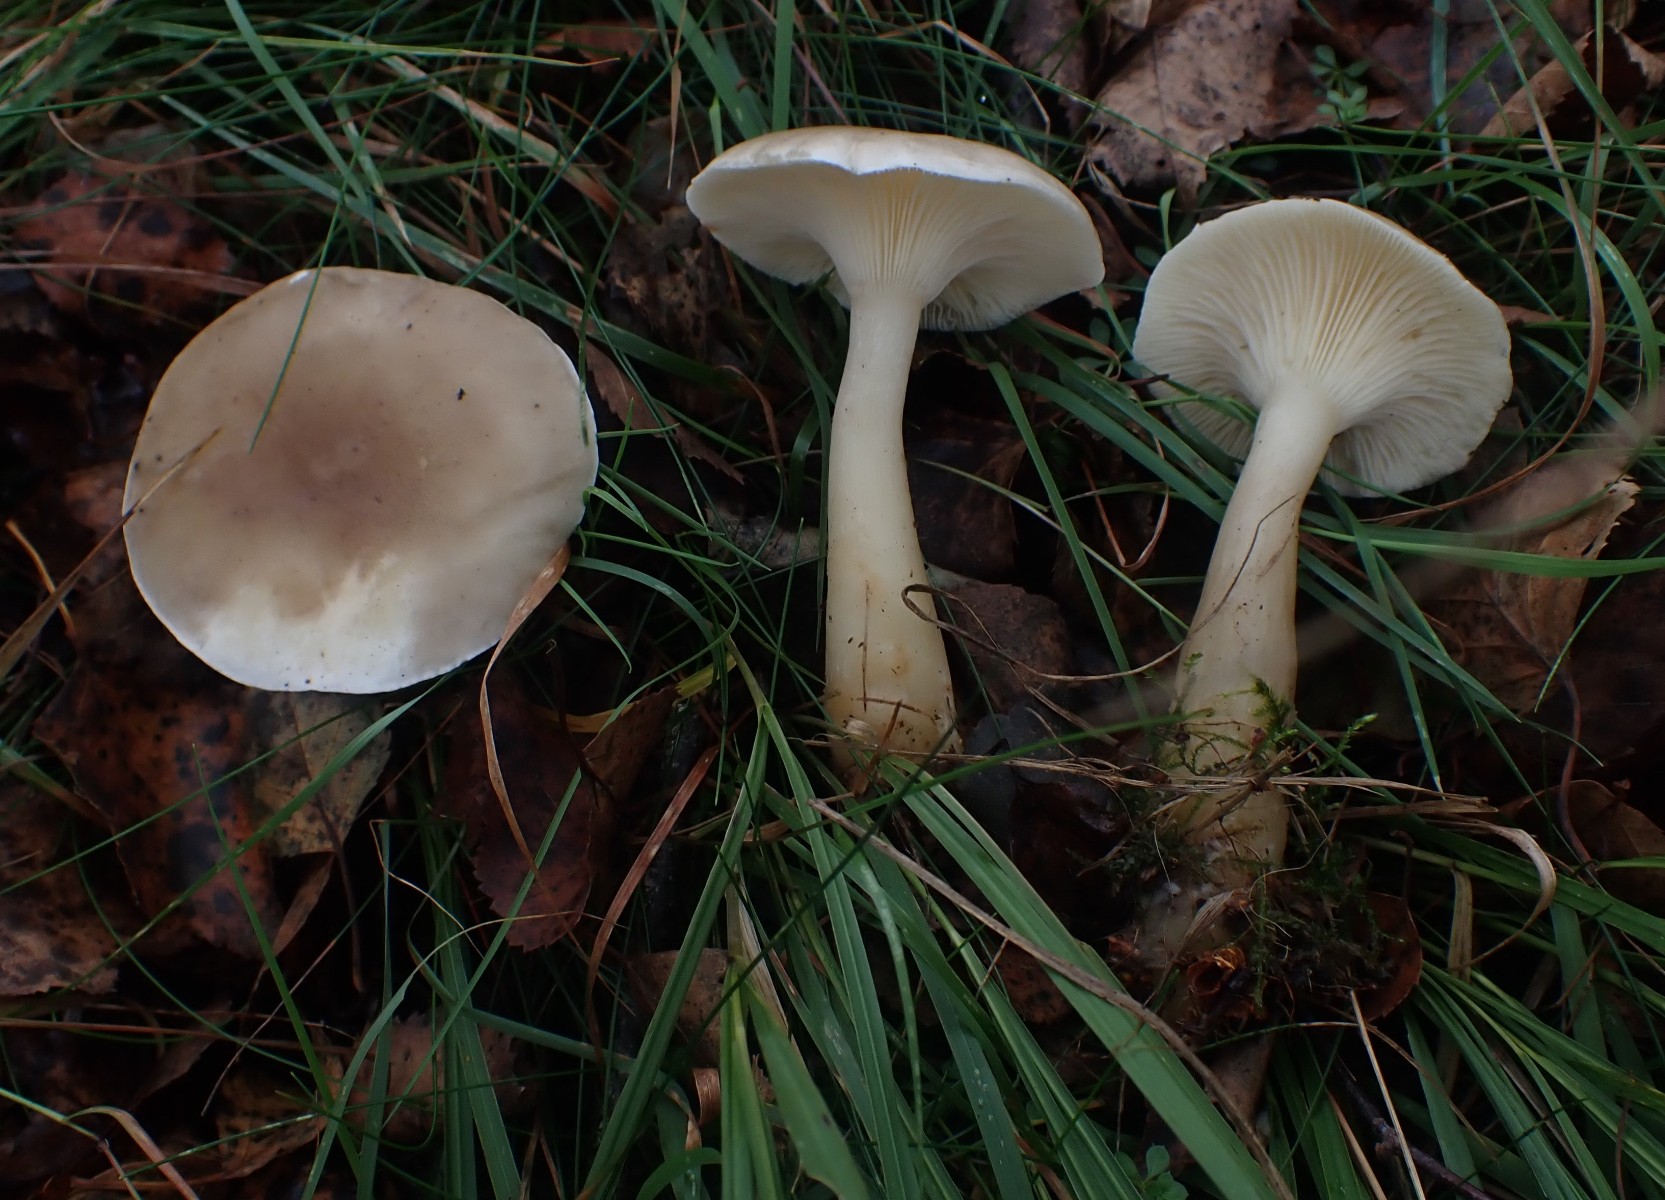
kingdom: Fungi
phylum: Basidiomycota
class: Agaricomycetes
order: Agaricales
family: Hygrophoraceae
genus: Ampulloclitocybe
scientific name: Ampulloclitocybe clavipes
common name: køllefod
